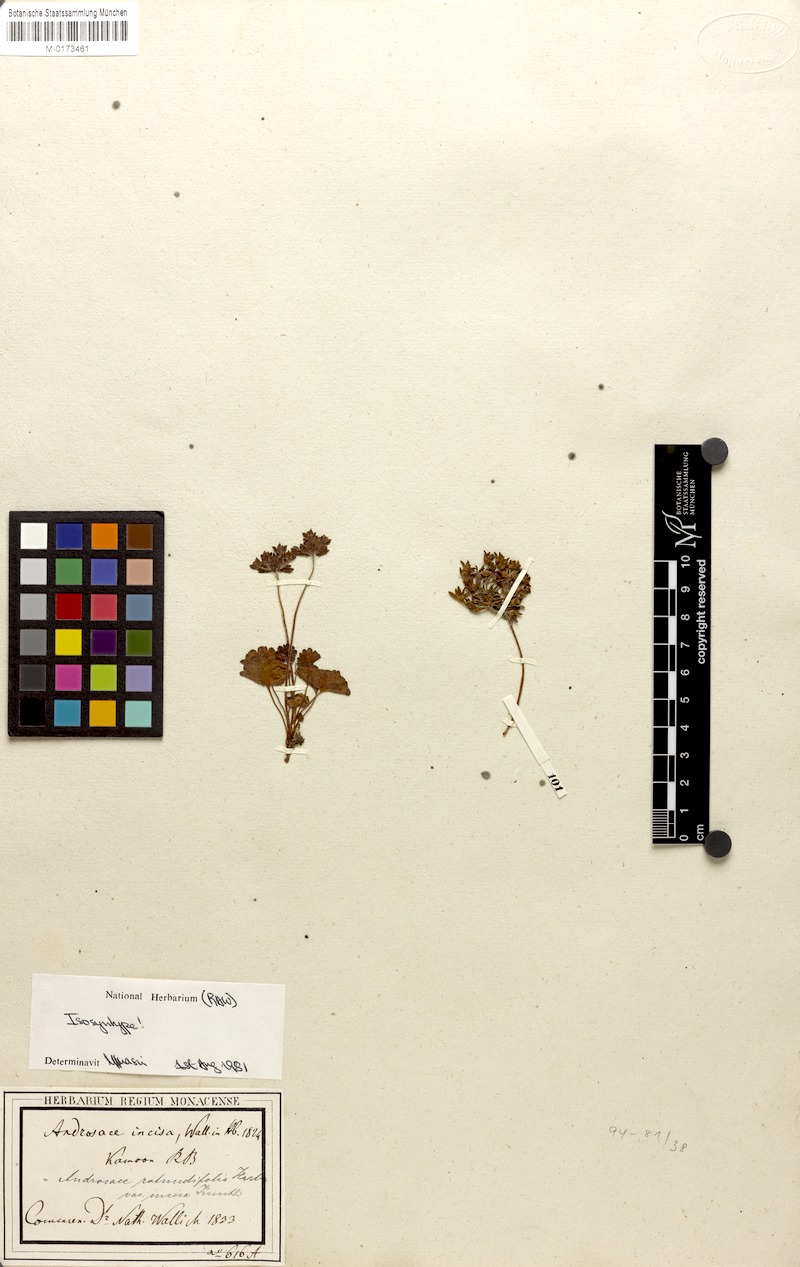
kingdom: Plantae
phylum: Tracheophyta
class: Magnoliopsida
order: Ericales
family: Primulaceae
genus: Androsace
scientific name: Androsace rotundifolia
